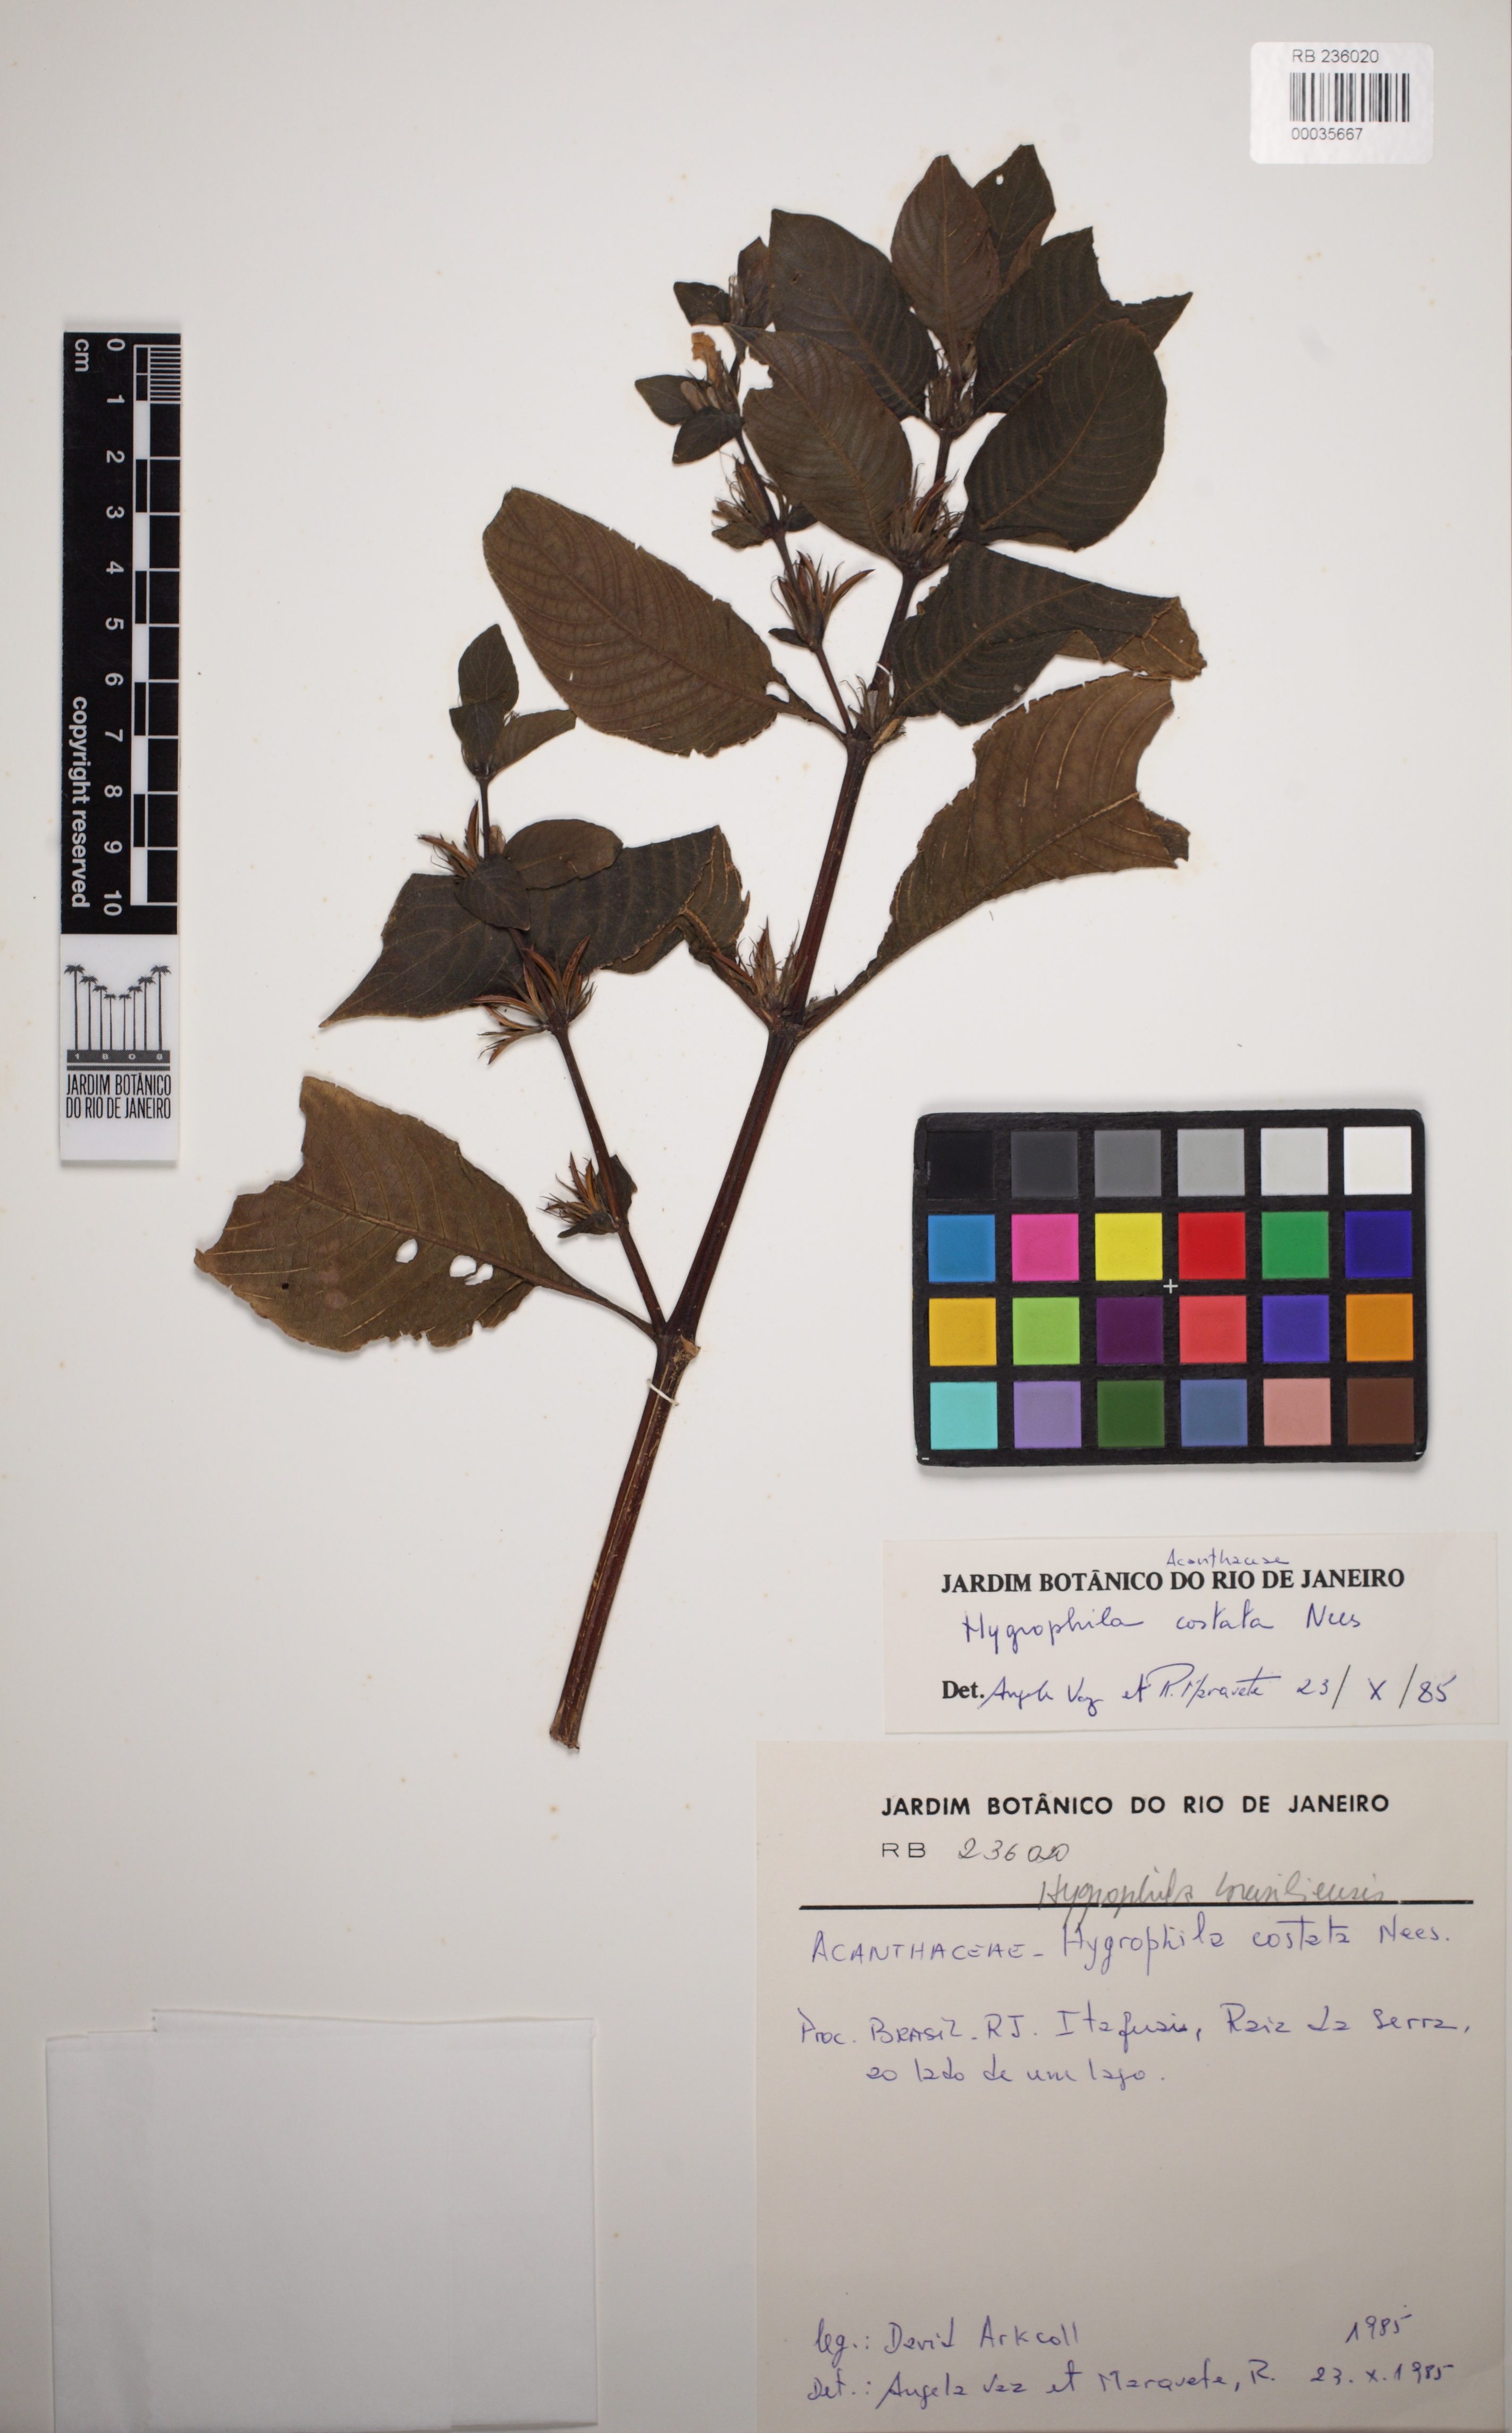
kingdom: Plantae
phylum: Tracheophyta
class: Magnoliopsida
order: Lamiales
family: Acanthaceae
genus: Hygrophila
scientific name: Hygrophila costata
